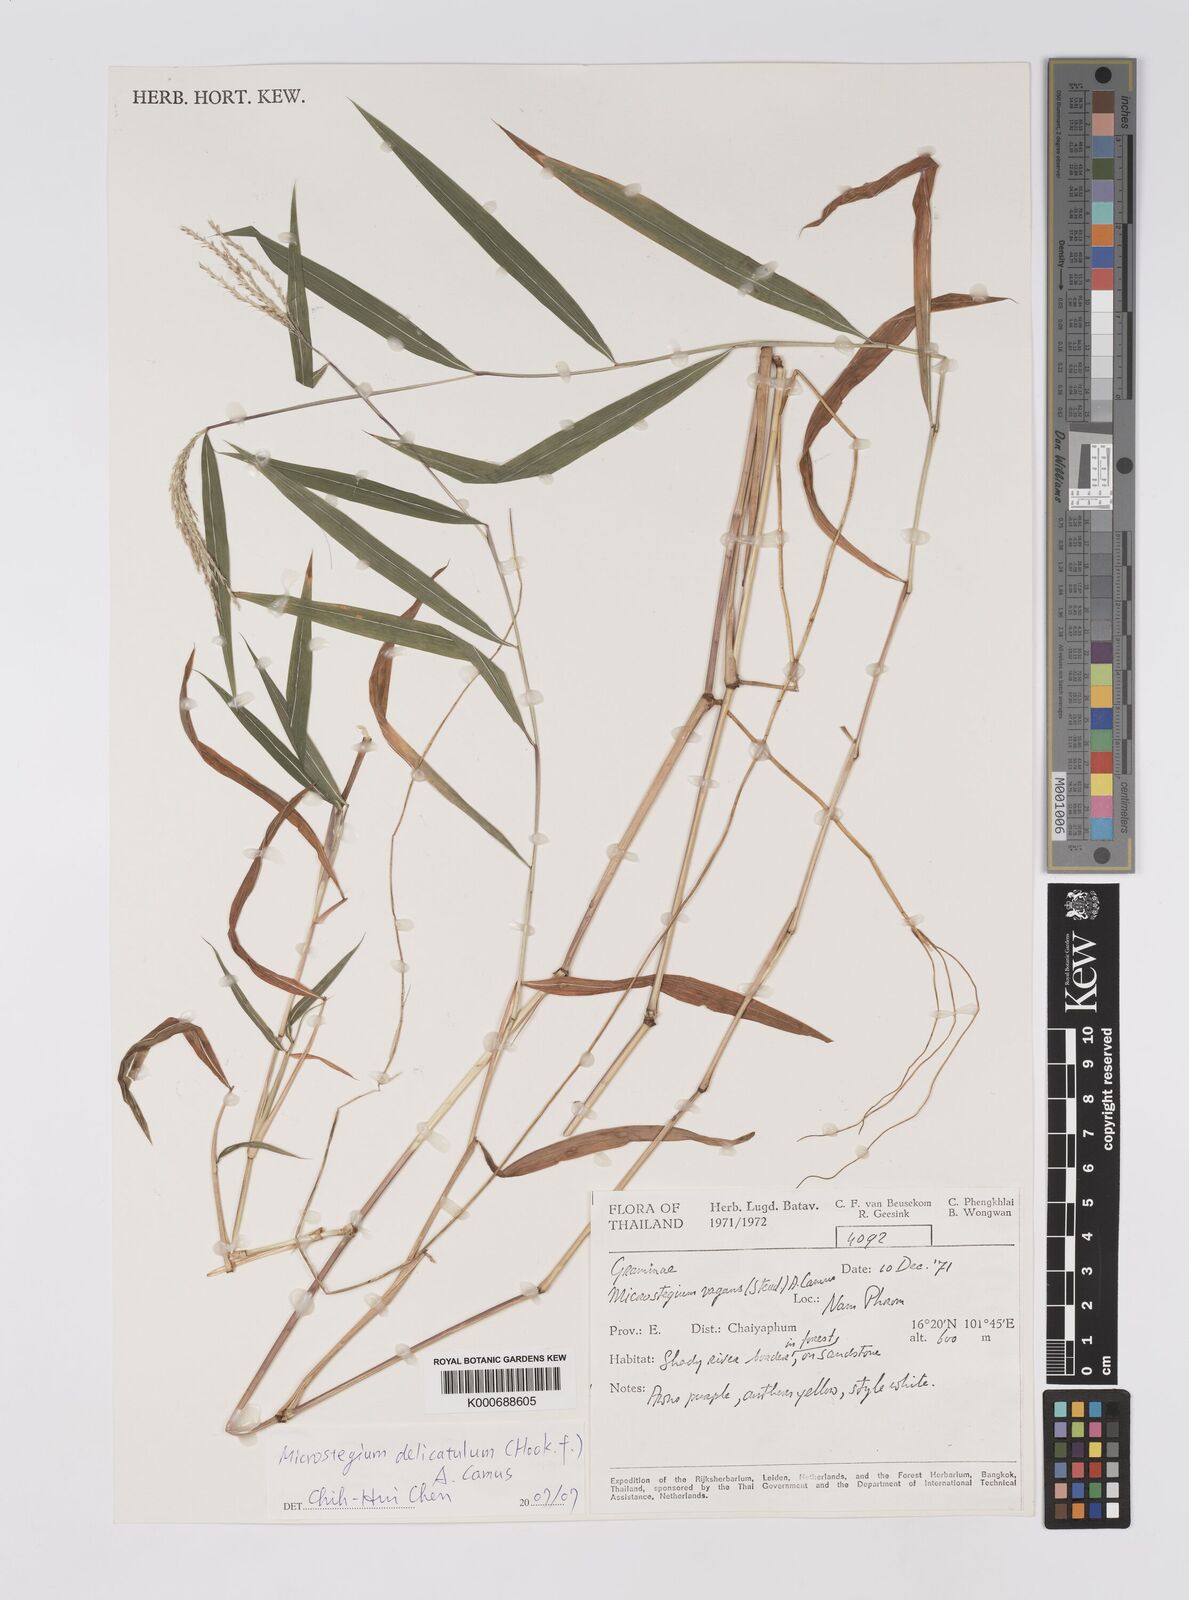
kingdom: Plantae
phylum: Tracheophyta
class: Liliopsida
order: Poales
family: Poaceae
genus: Microstegium
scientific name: Microstegium delicatulum
